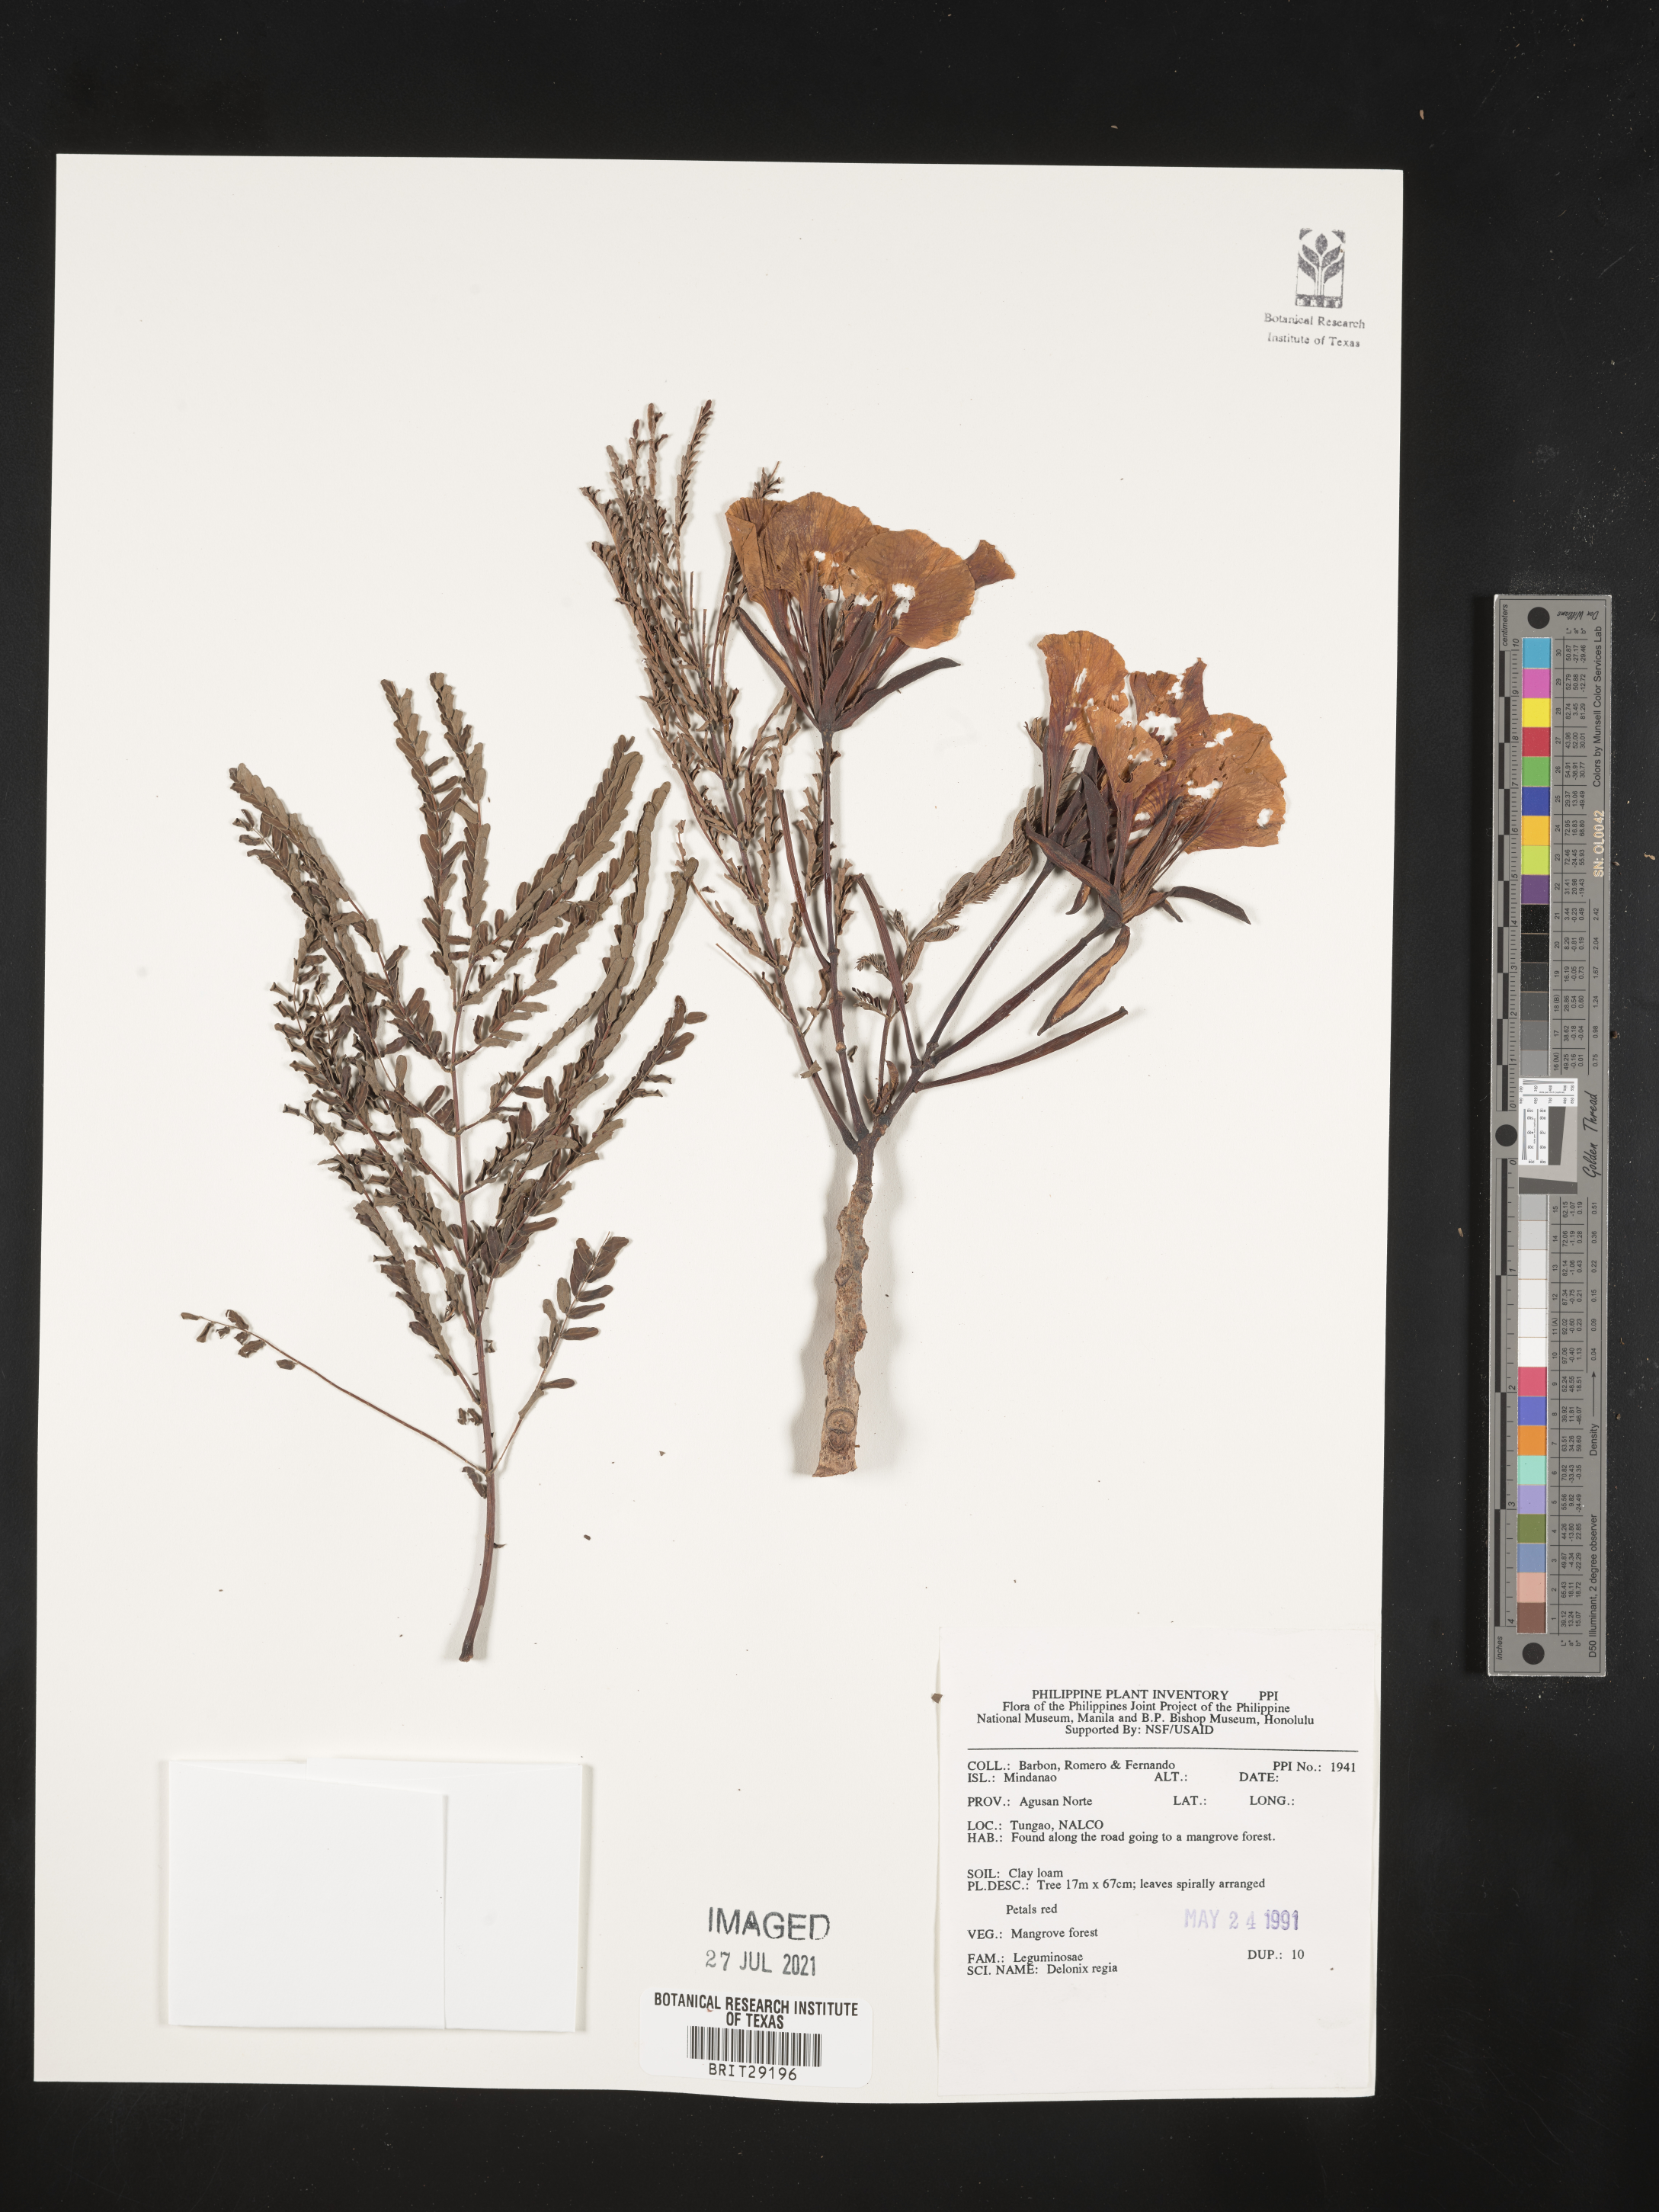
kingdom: Plantae
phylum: Tracheophyta
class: Magnoliopsida
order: Fabales
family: Fabaceae
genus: Delonix
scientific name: Delonix regia
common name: Royal poinciana
